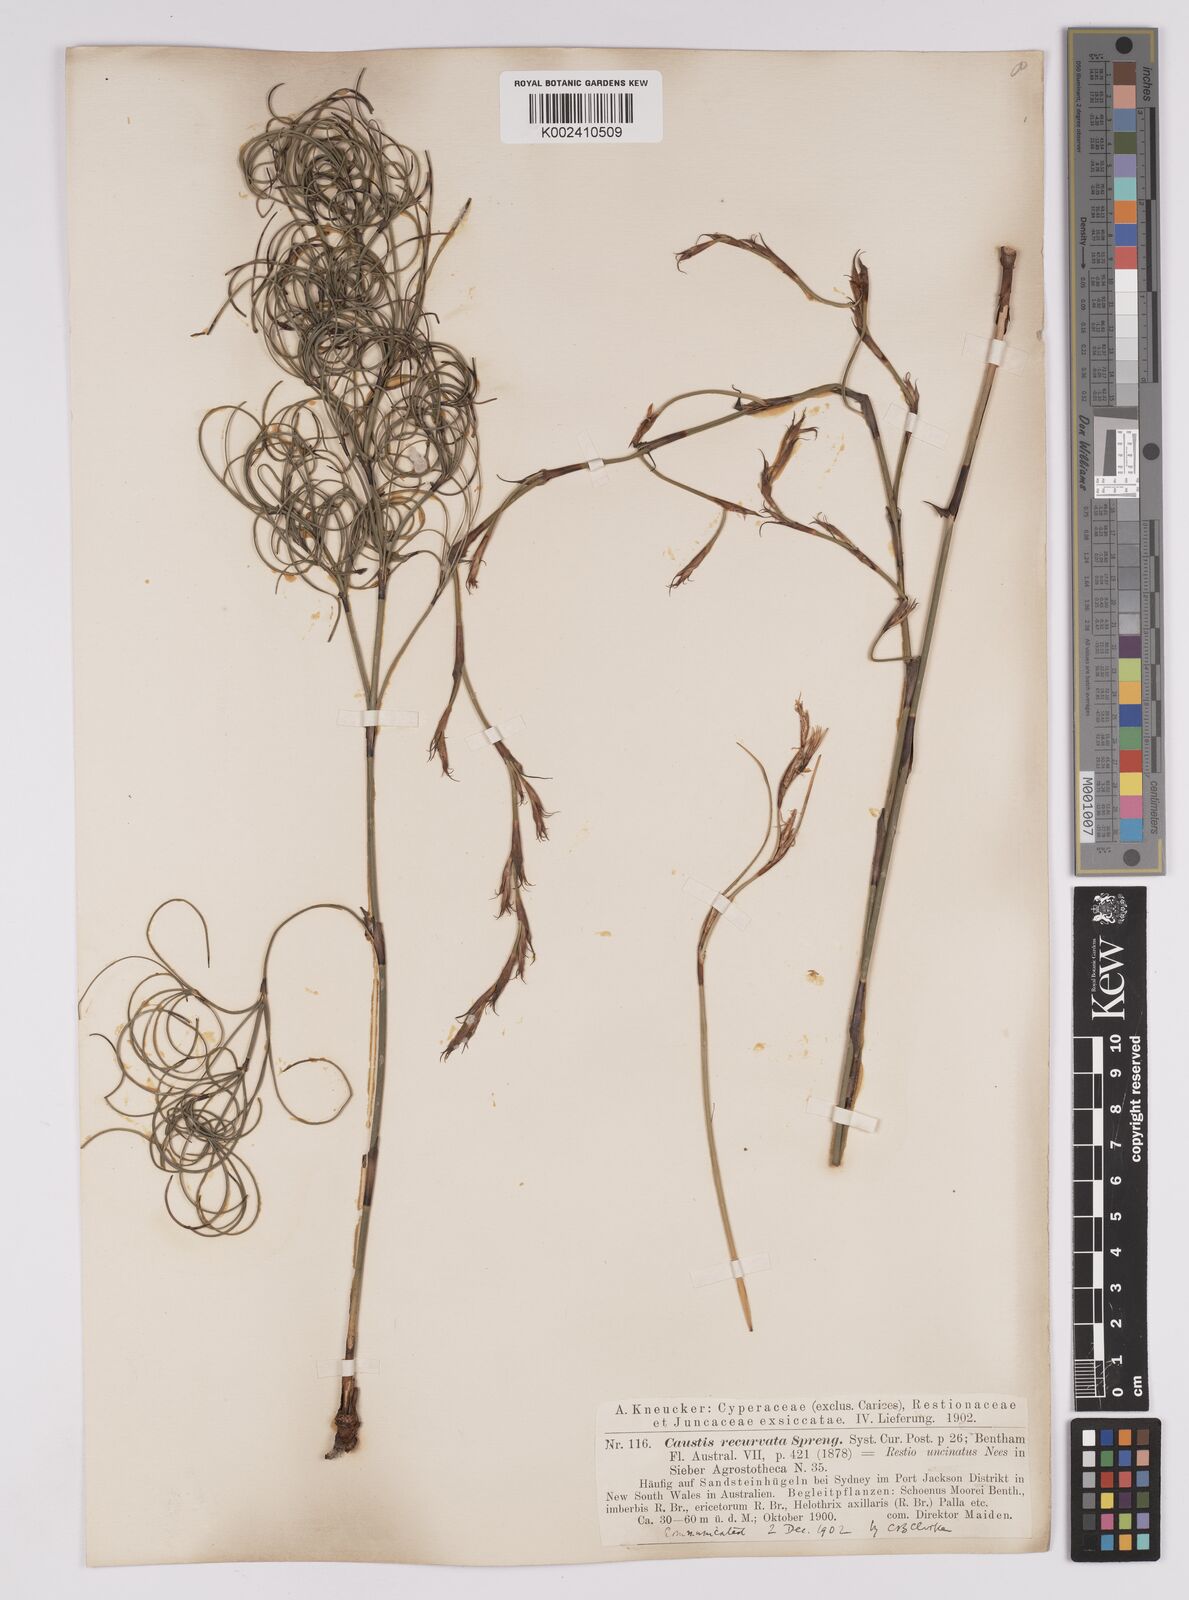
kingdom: Plantae
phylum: Tracheophyta
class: Liliopsida
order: Poales
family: Cyperaceae
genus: Caustis
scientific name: Caustis recurvata
